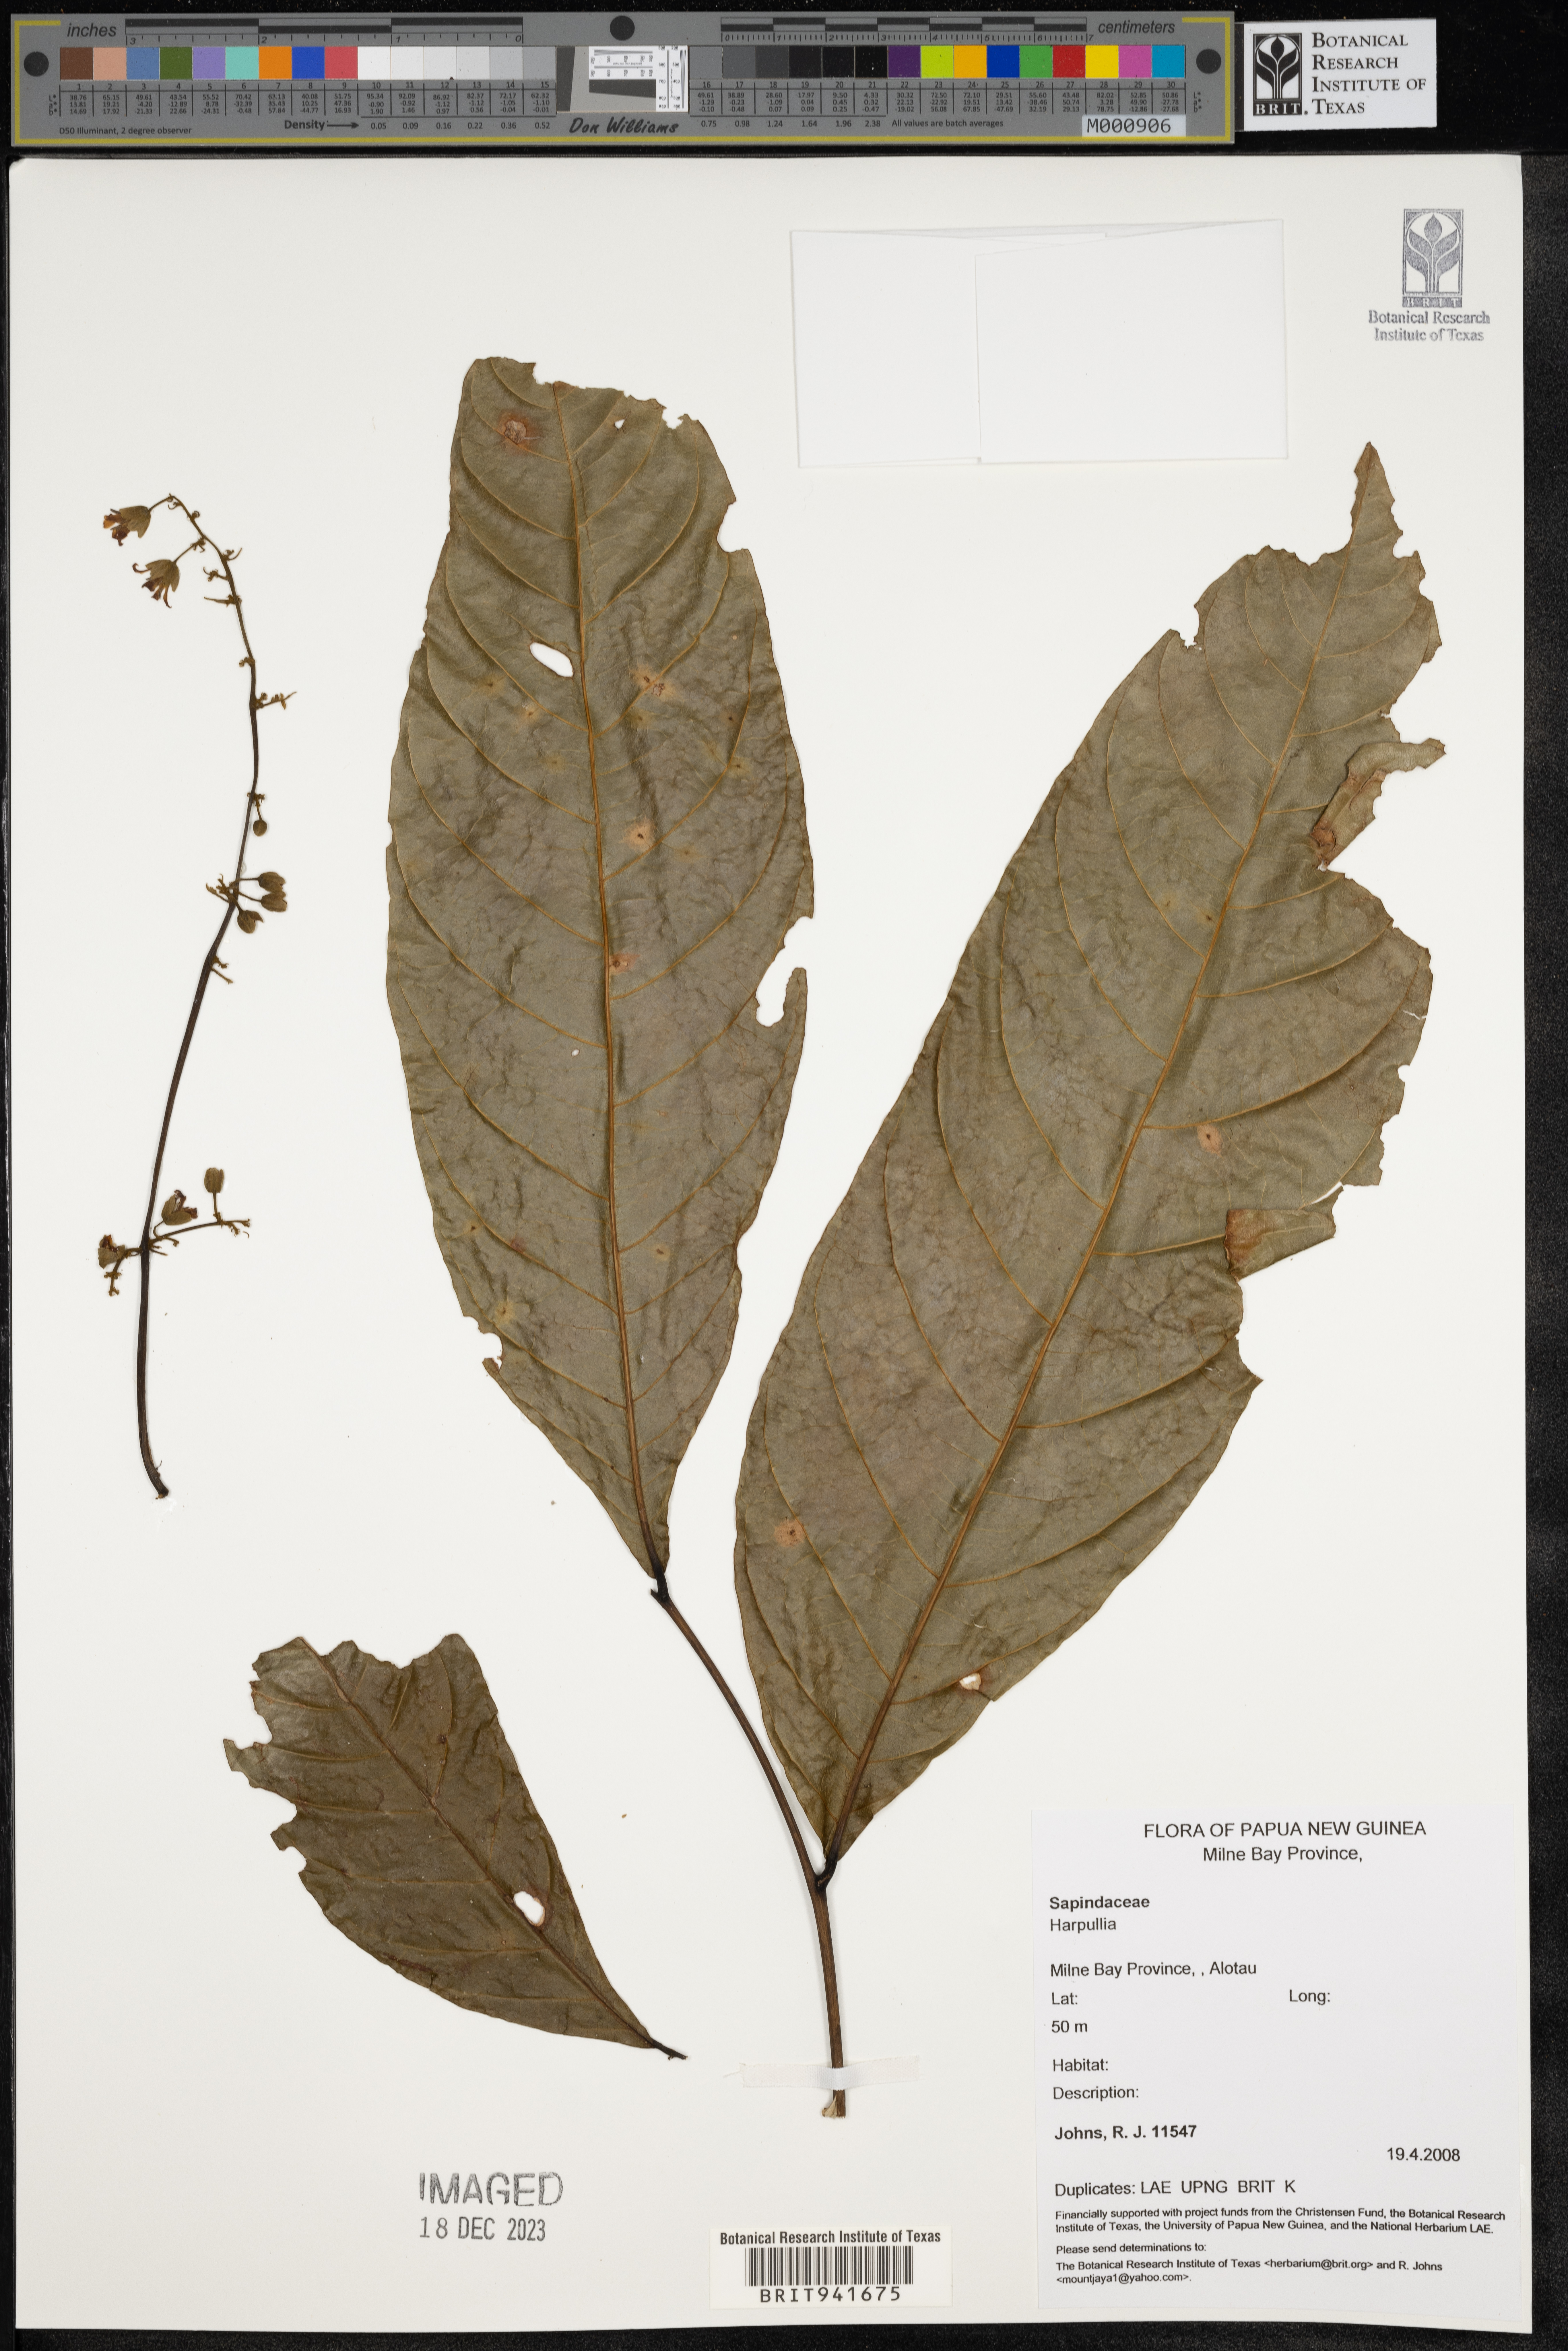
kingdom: Plantae
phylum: Tracheophyta
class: Magnoliopsida
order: Sapindales
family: Sapindaceae
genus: Harpullia
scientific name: Harpullia
